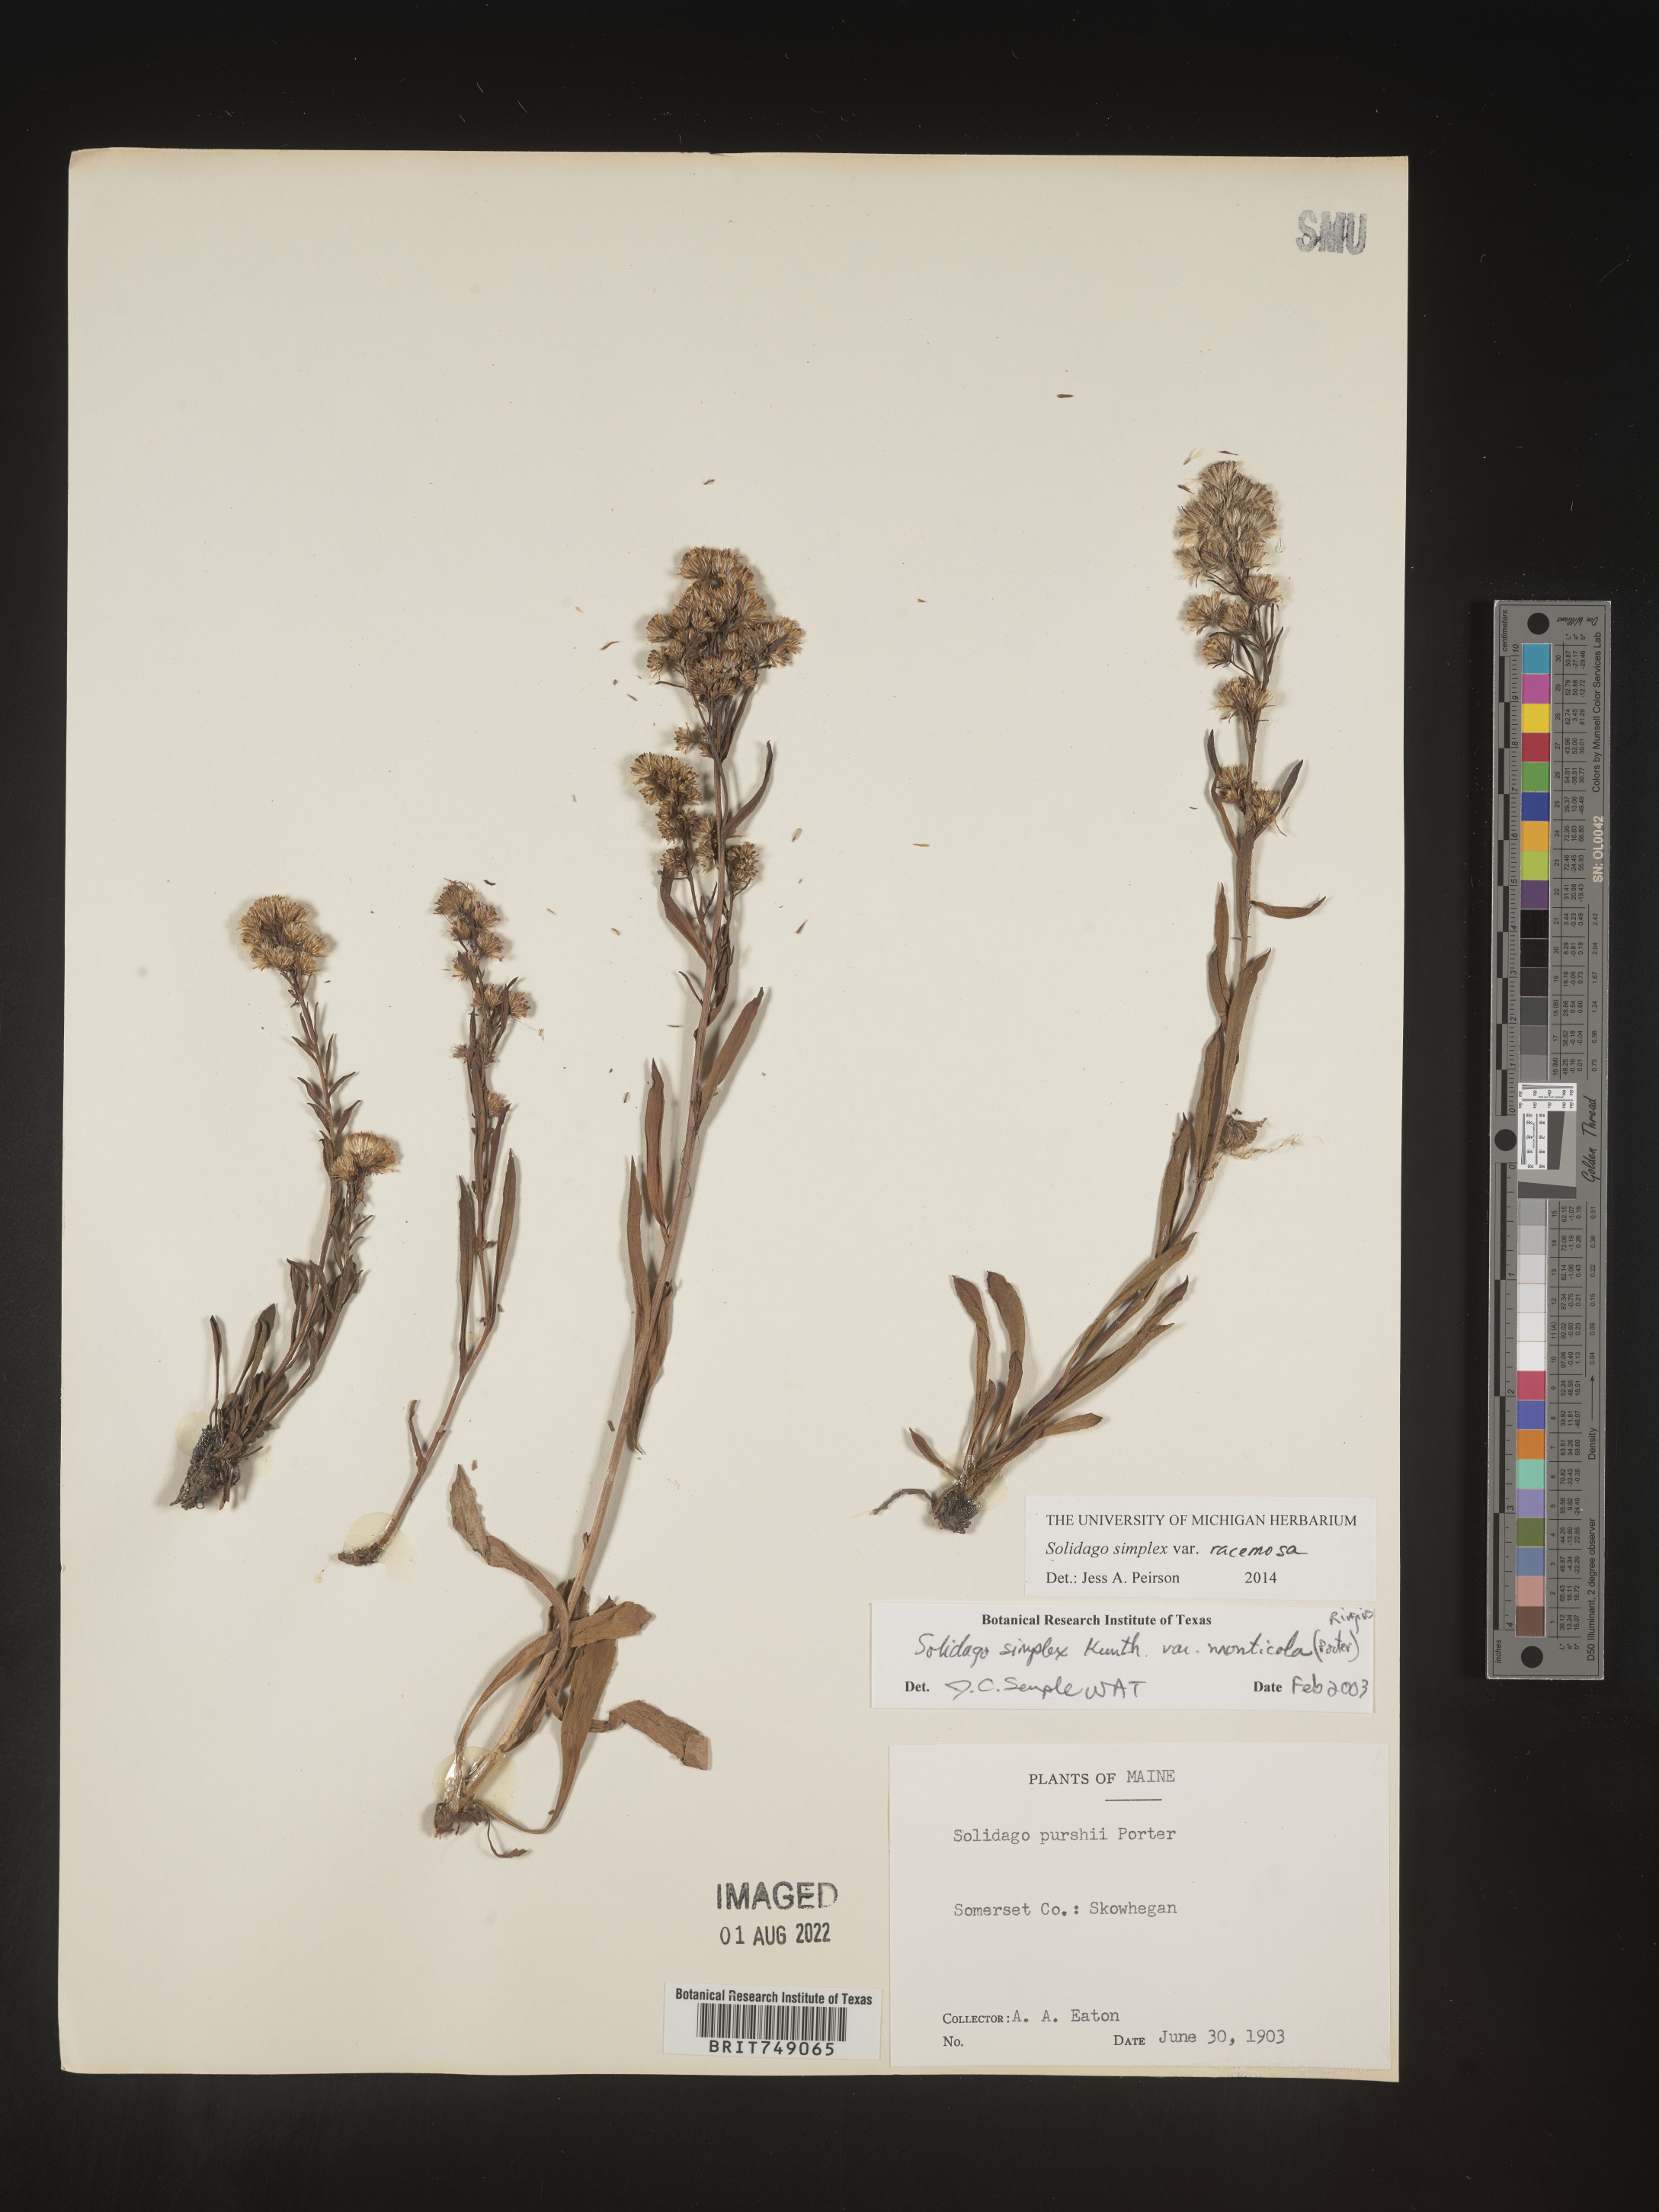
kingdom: Plantae
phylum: Tracheophyta
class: Magnoliopsida
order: Asterales
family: Asteraceae
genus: Solidago
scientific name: Solidago simplex
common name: Sticky goldenrod
